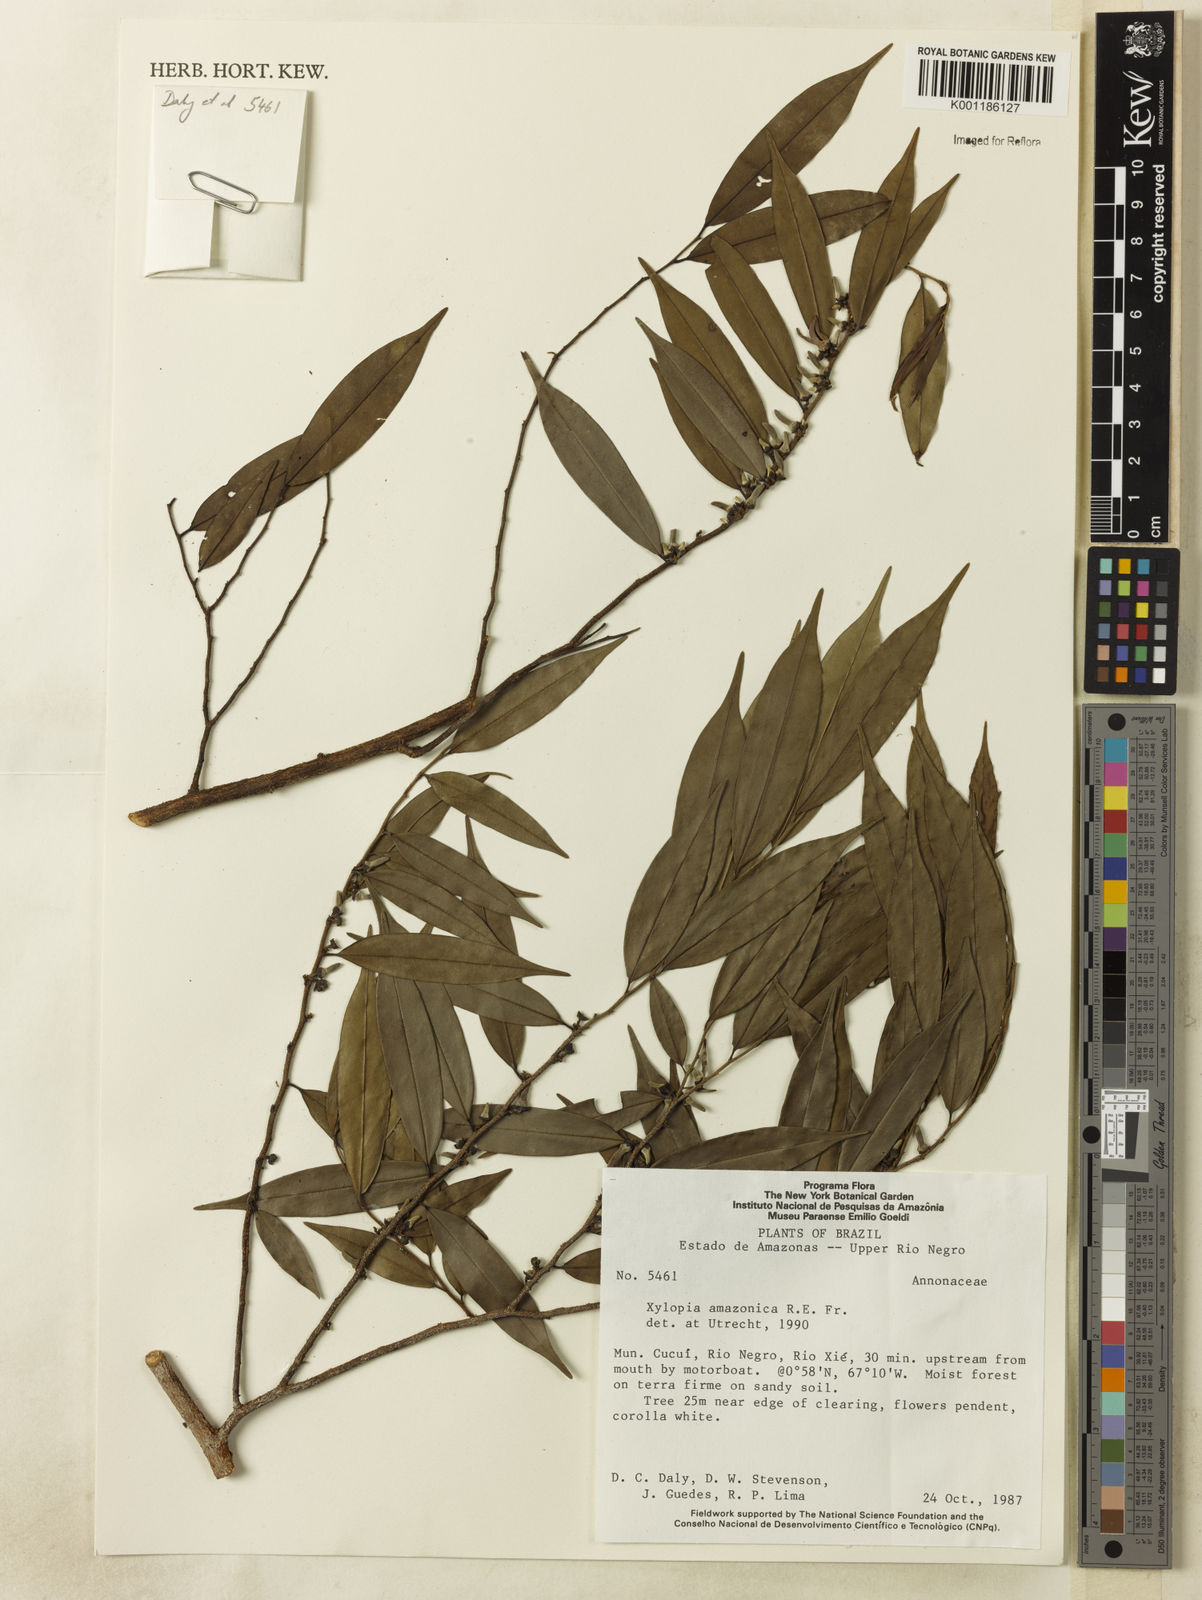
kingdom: Plantae
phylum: Tracheophyta
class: Magnoliopsida
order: Magnoliales
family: Annonaceae
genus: Xylopia
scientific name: Xylopia amazonica
